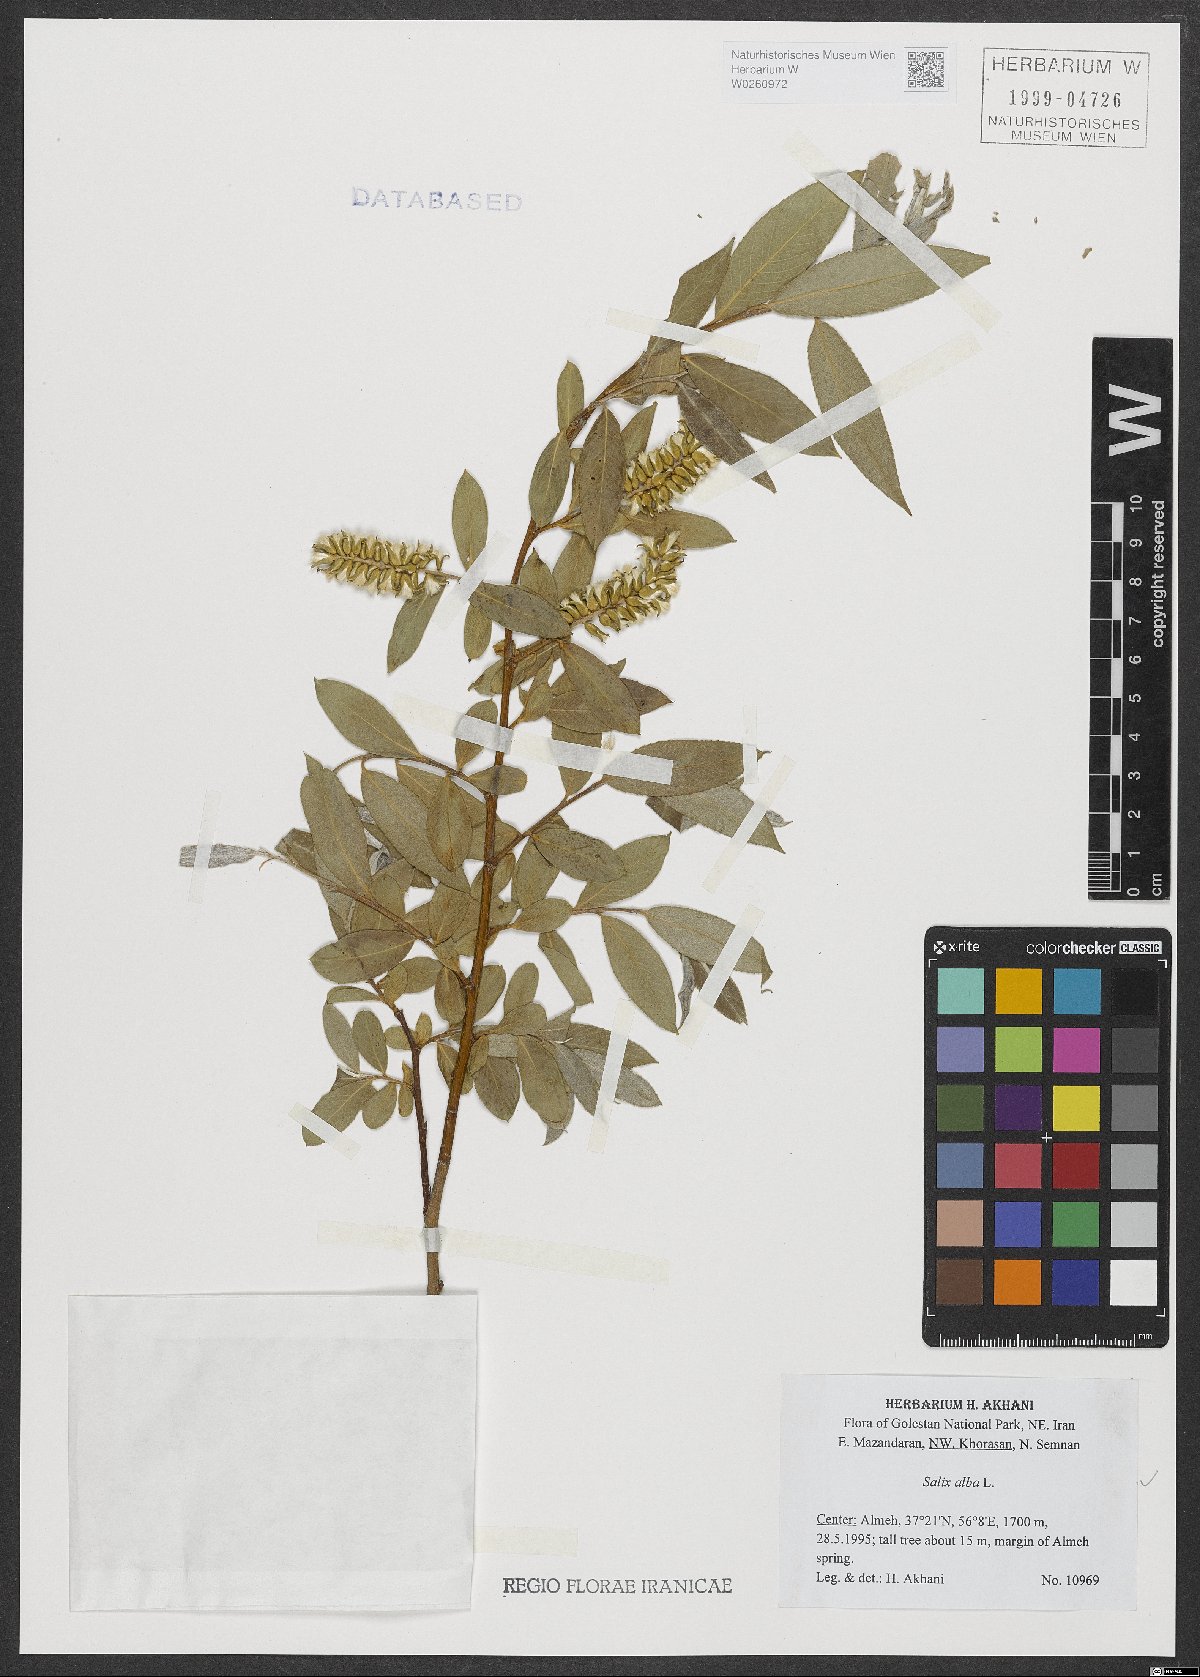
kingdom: Plantae
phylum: Tracheophyta
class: Magnoliopsida
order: Malpighiales
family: Salicaceae
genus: Salix
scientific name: Salix alba
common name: White willow
